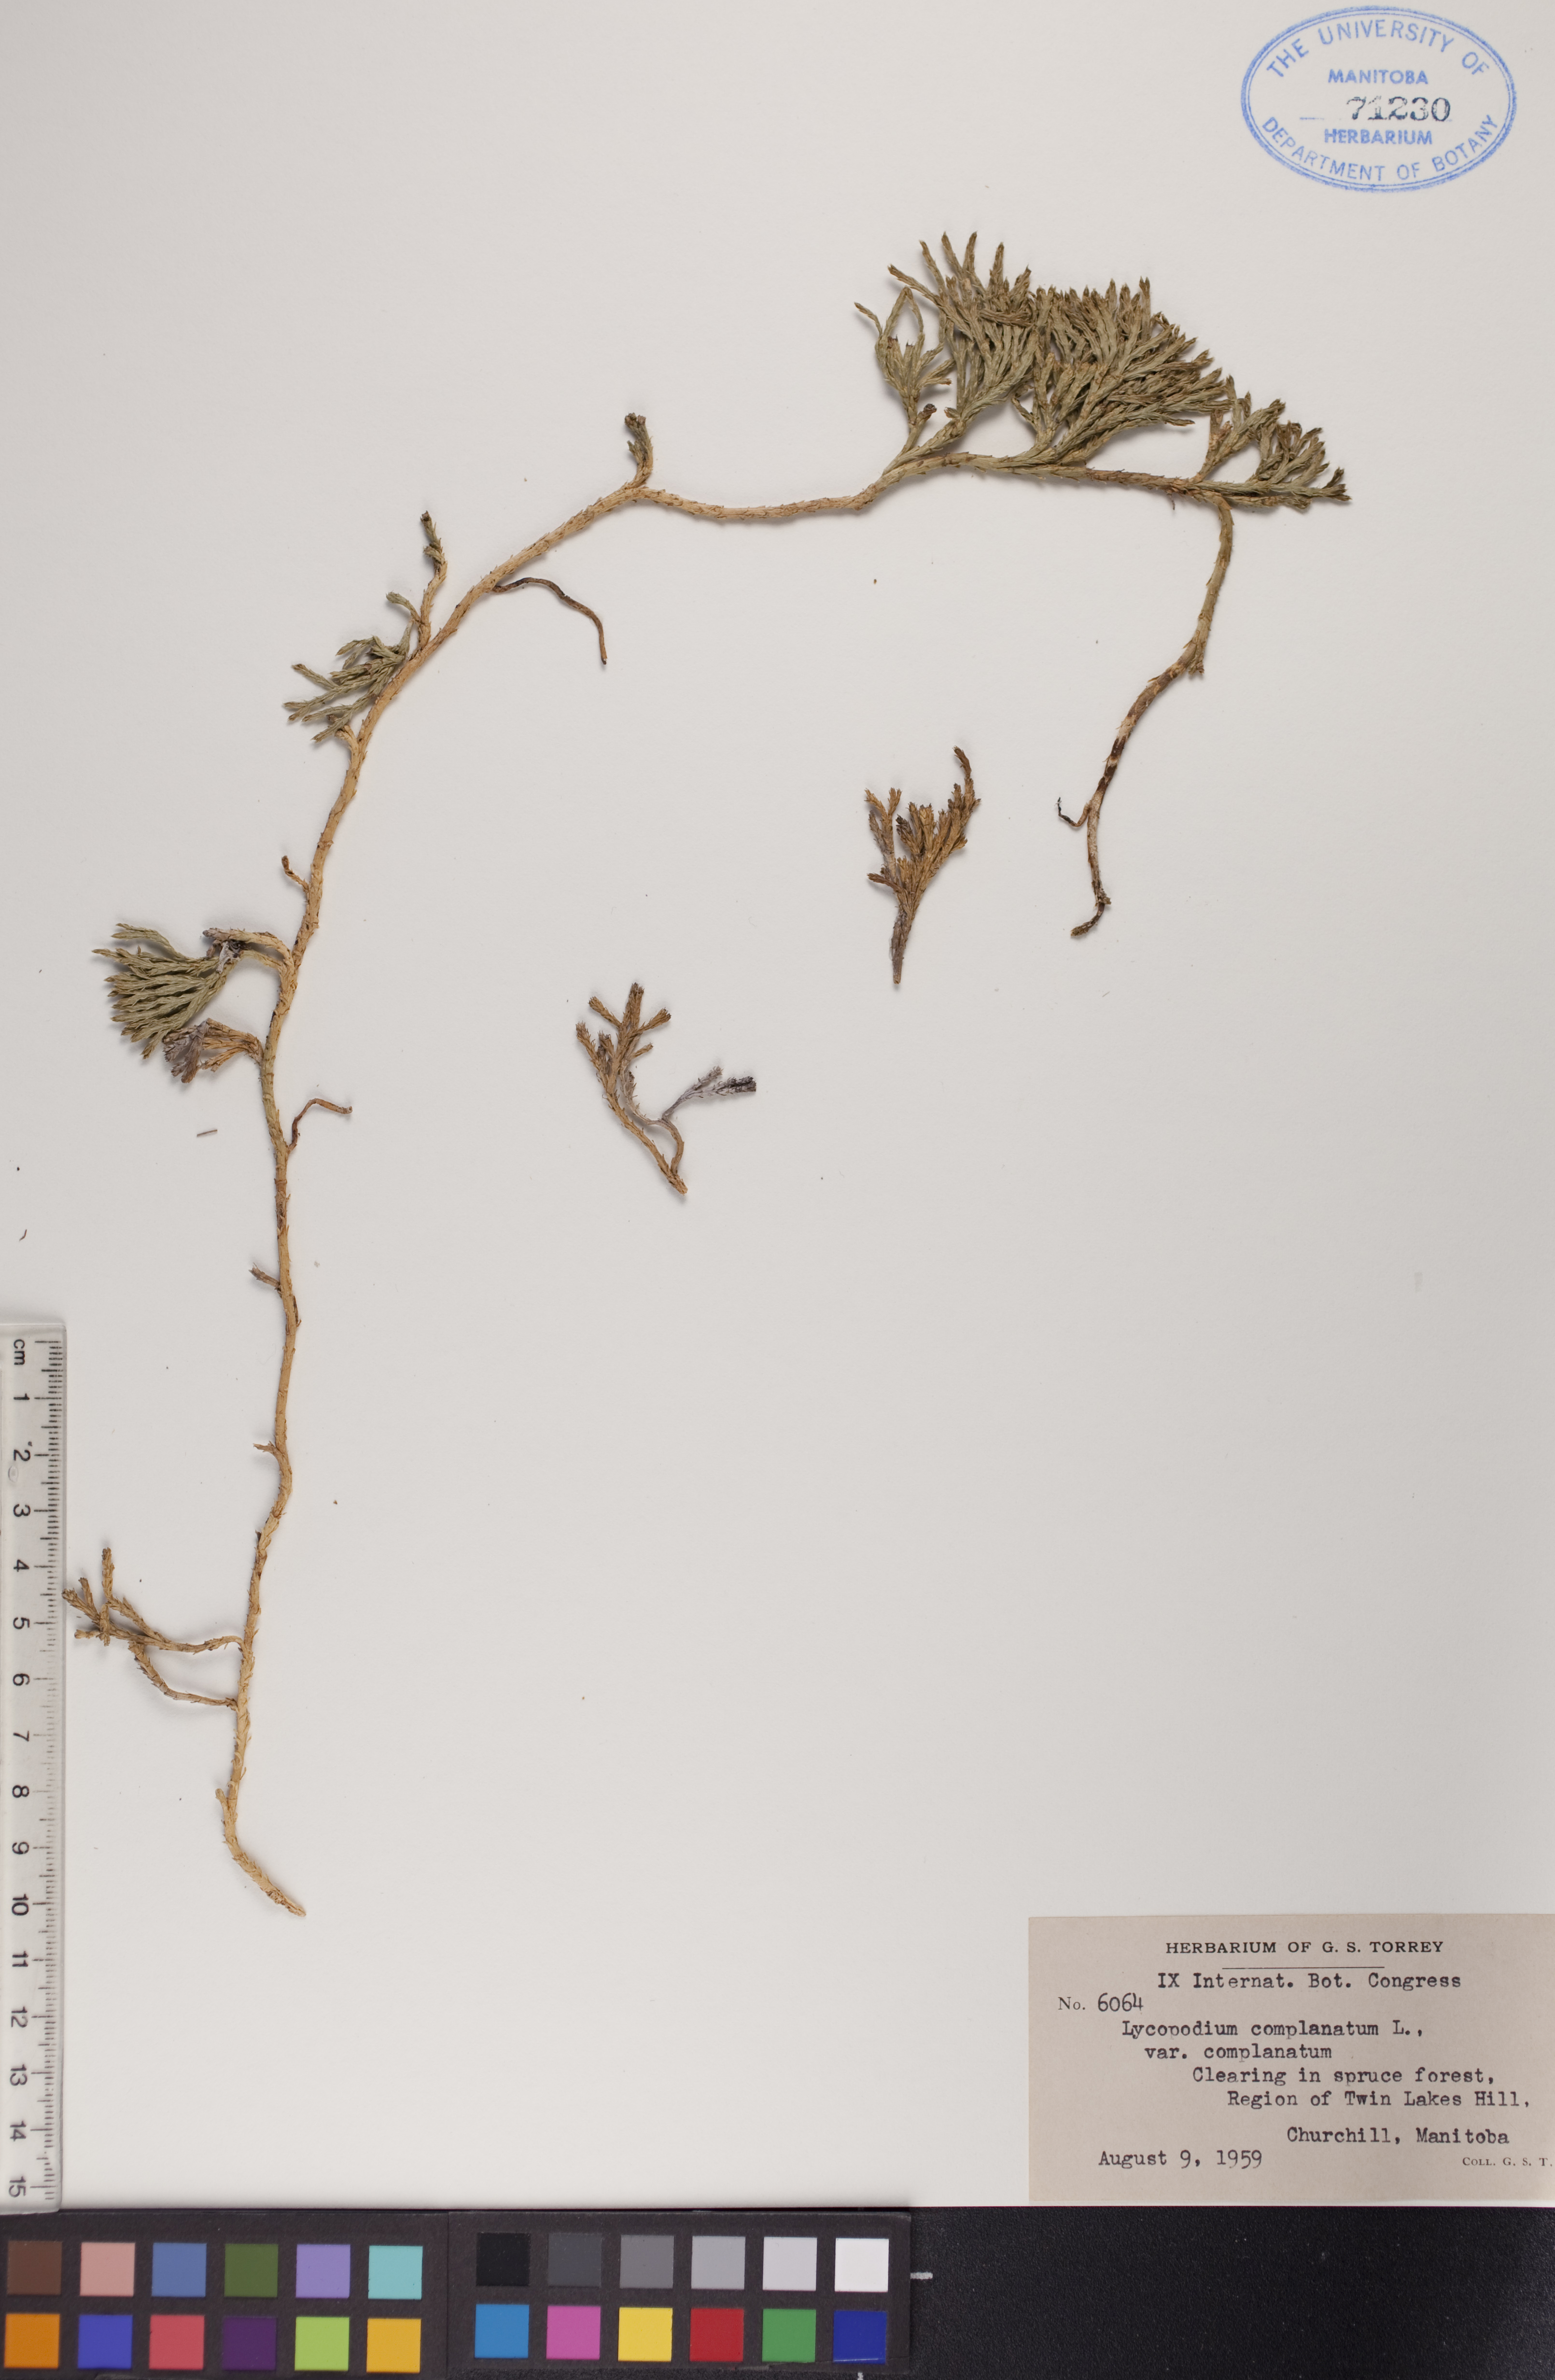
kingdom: Plantae
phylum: Tracheophyta
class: Lycopodiopsida
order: Lycopodiales
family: Lycopodiaceae
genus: Diphasiastrum
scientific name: Diphasiastrum complanatum
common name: Northern running-pine
